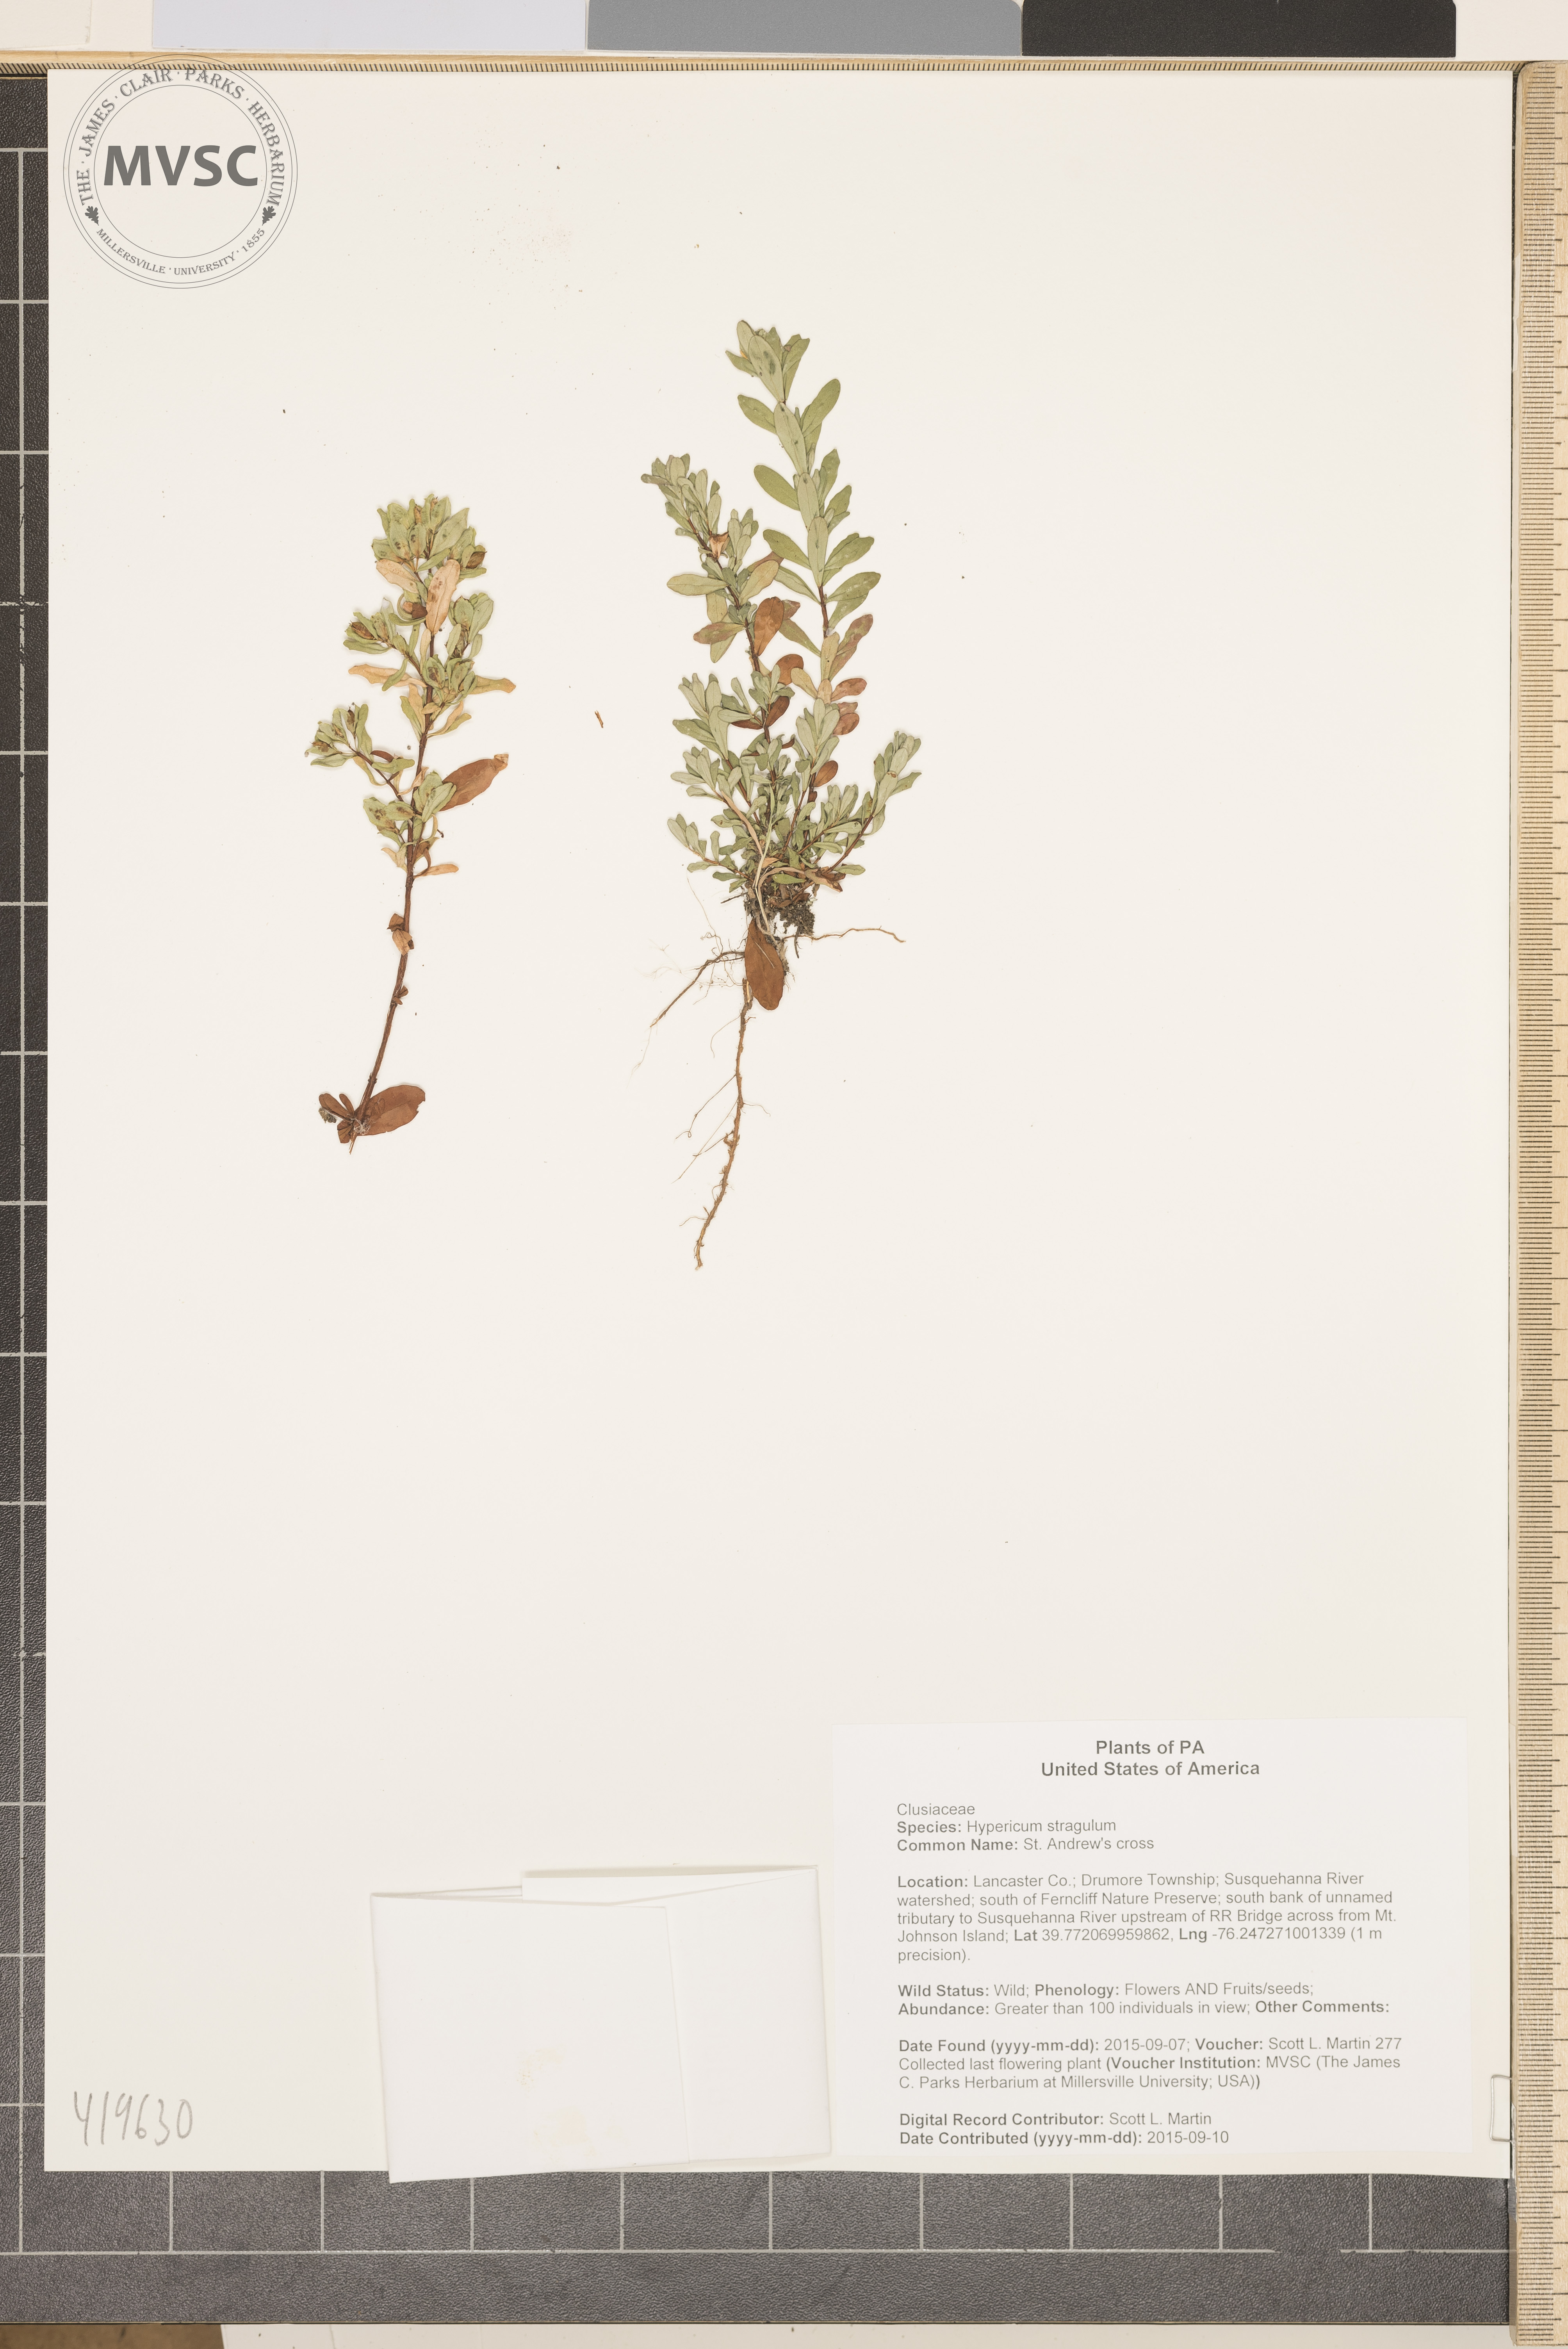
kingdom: Plantae
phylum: Tracheophyta
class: Magnoliopsida
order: Malpighiales
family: Hypericaceae
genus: Hypericum
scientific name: Hypericum hypericoides
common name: St. Andrew's cross
